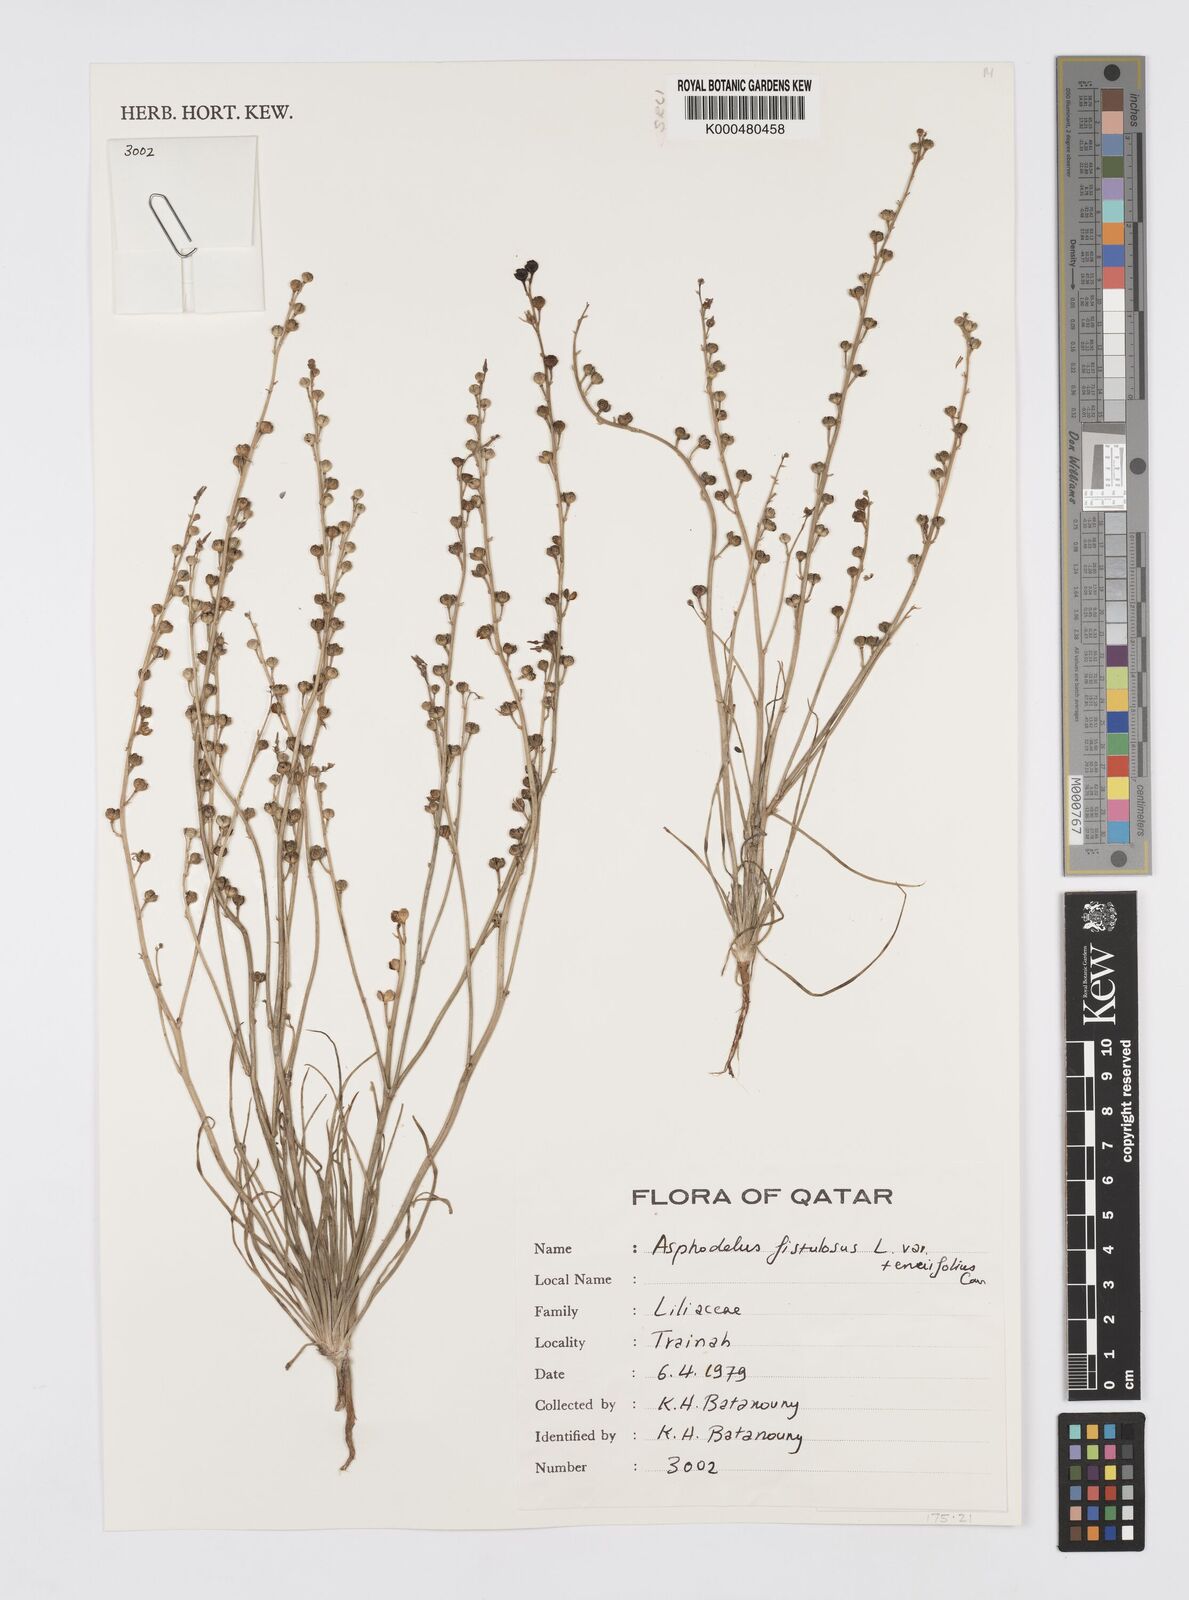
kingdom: Plantae
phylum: Tracheophyta
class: Liliopsida
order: Asparagales
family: Asphodelaceae
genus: Asphodelus
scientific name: Asphodelus fistulosus
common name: Onionweed
